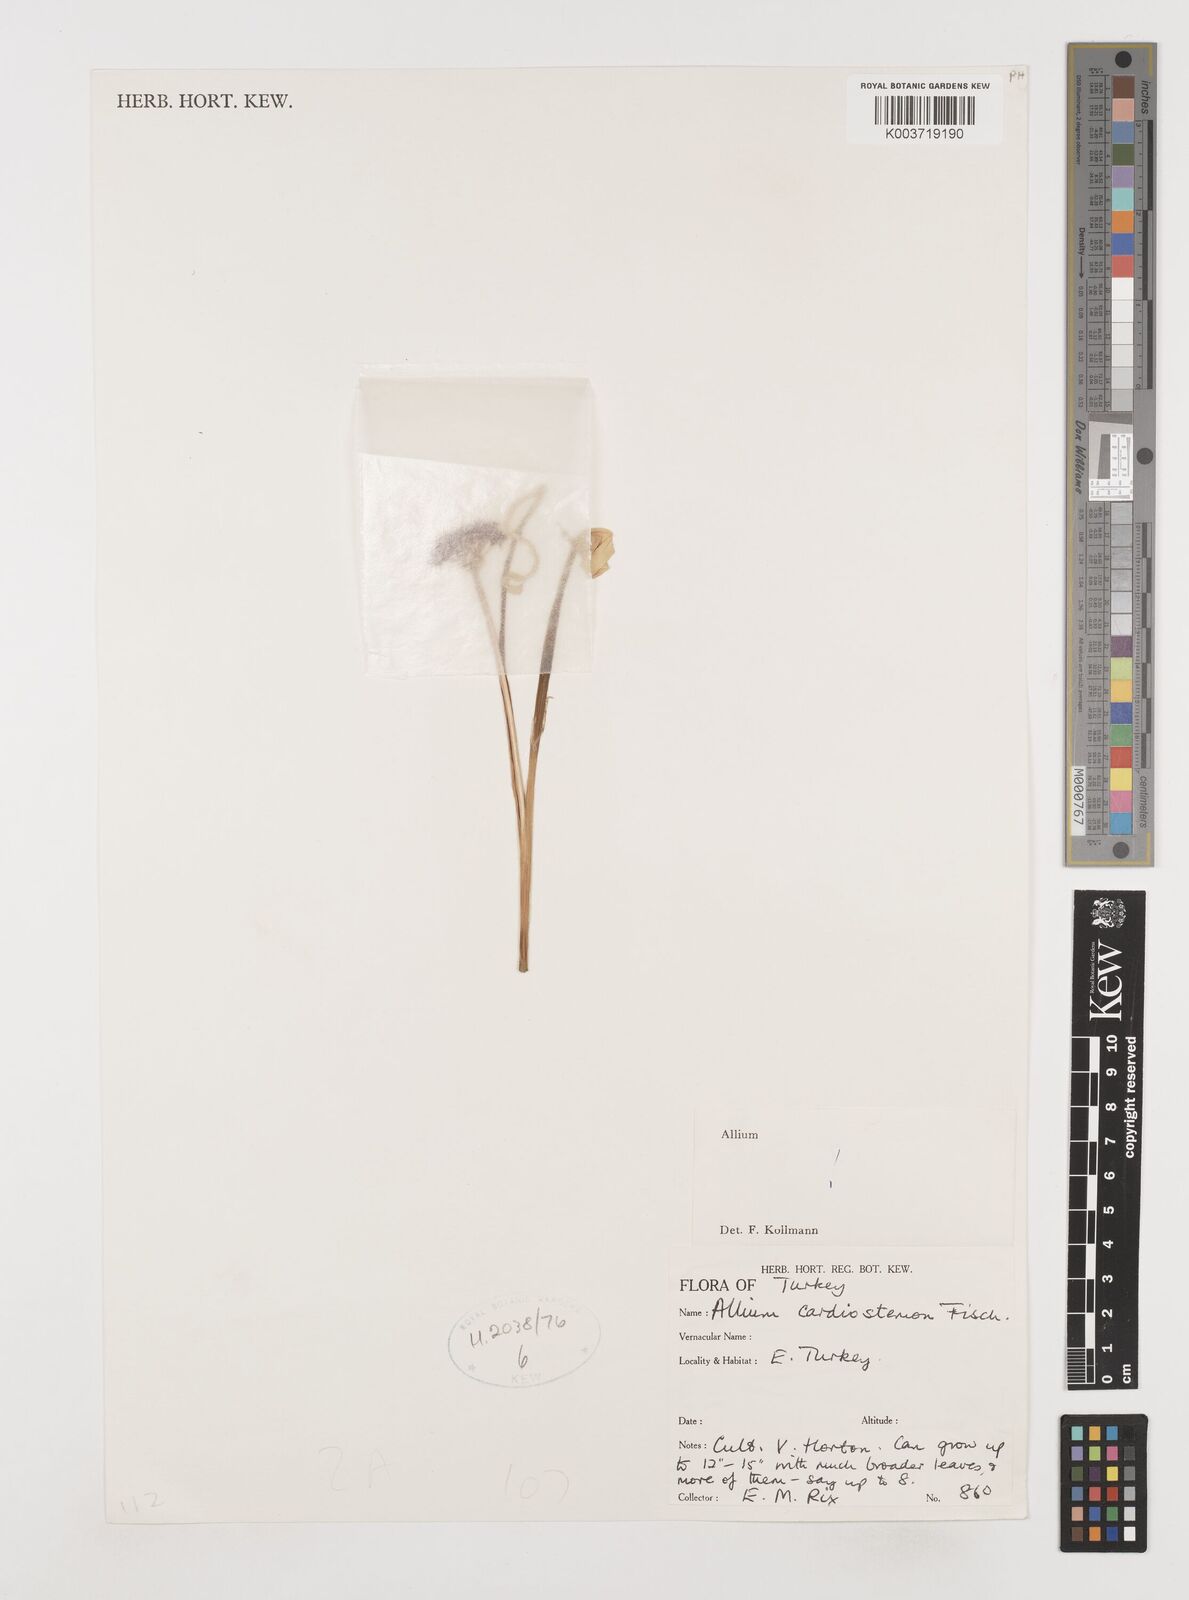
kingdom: Plantae
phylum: Tracheophyta
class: Liliopsida
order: Asparagales
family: Amaryllidaceae
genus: Allium
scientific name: Allium cardiostemon
